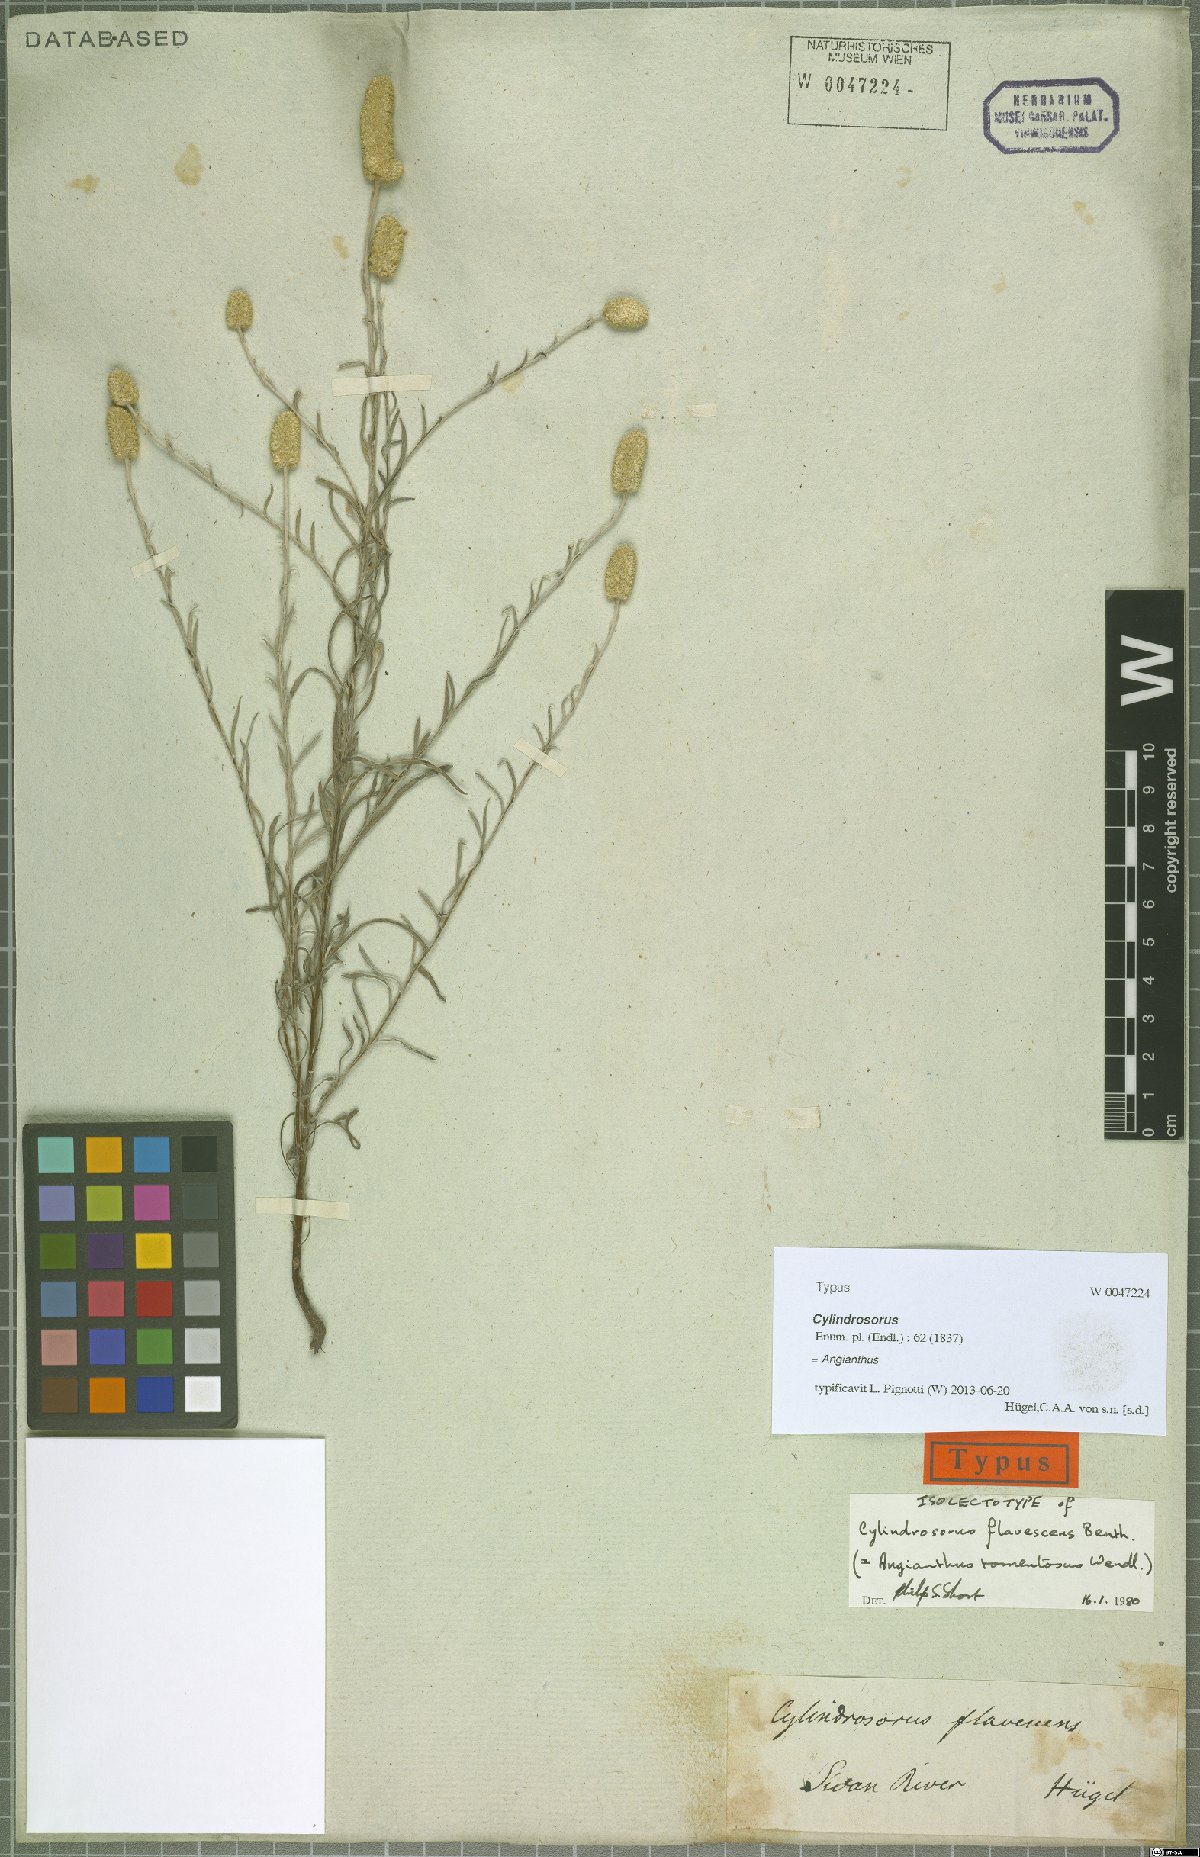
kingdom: Plantae
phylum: Tracheophyta
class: Magnoliopsida
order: Asterales
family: Asteraceae
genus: Siloxerus
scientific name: Siloxerus tomentosus
